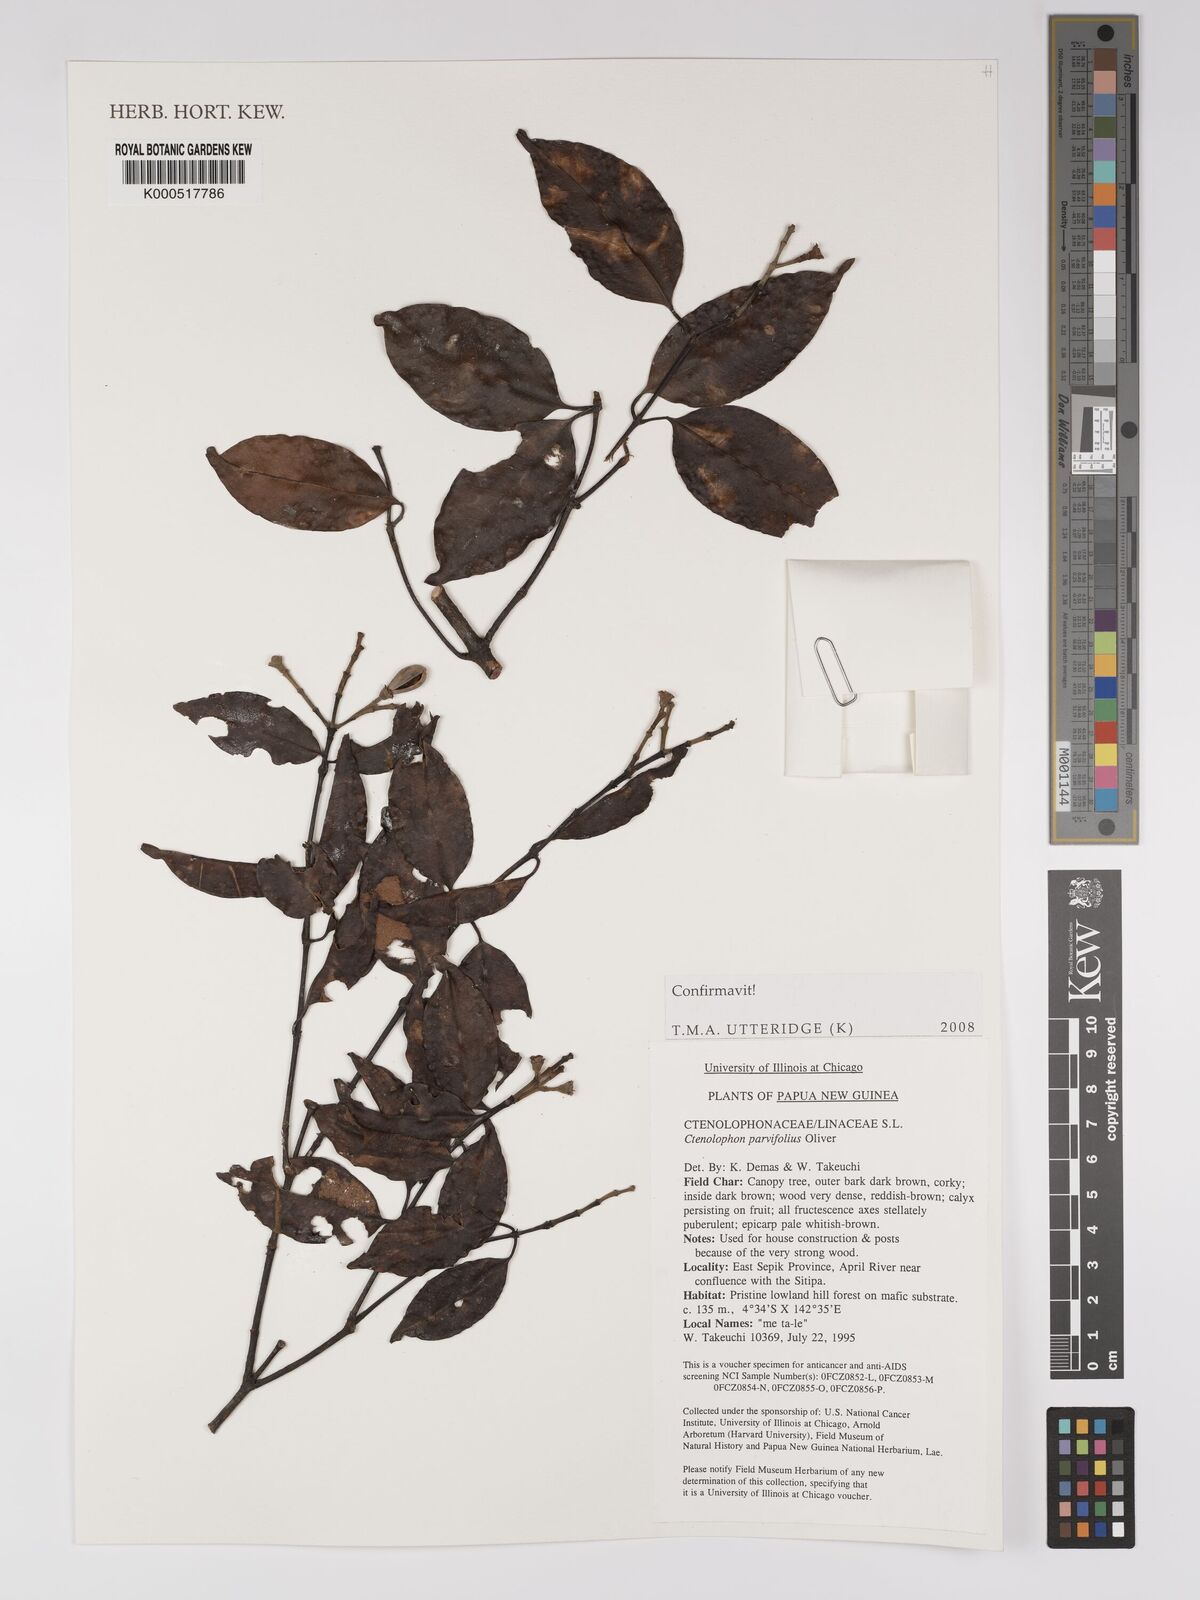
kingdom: Plantae
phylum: Tracheophyta
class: Magnoliopsida
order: Malpighiales
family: Ctenolophonaceae
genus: Ctenolophon
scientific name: Ctenolophon parvifolius
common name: Mertas
